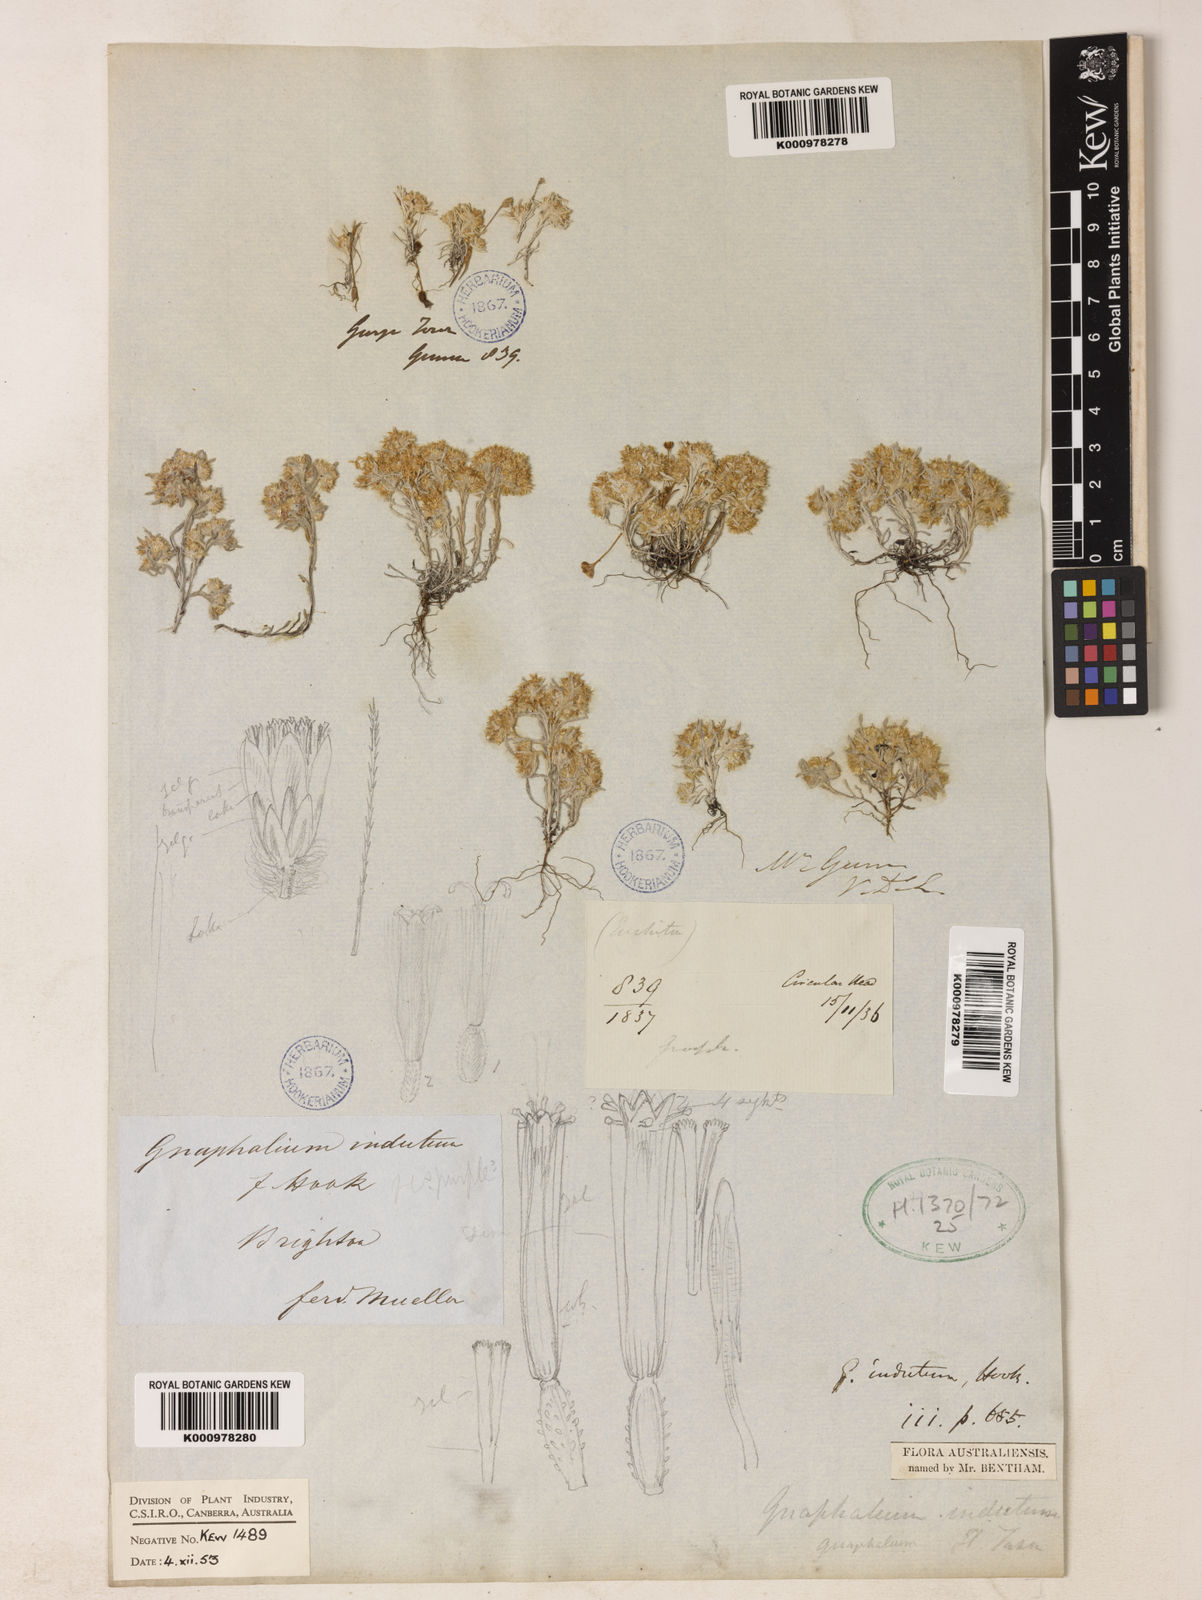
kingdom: Plantae
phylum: Tracheophyta
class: Magnoliopsida
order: Asterales
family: Asteraceae
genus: Gnaphalium
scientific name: Gnaphalium indutum
